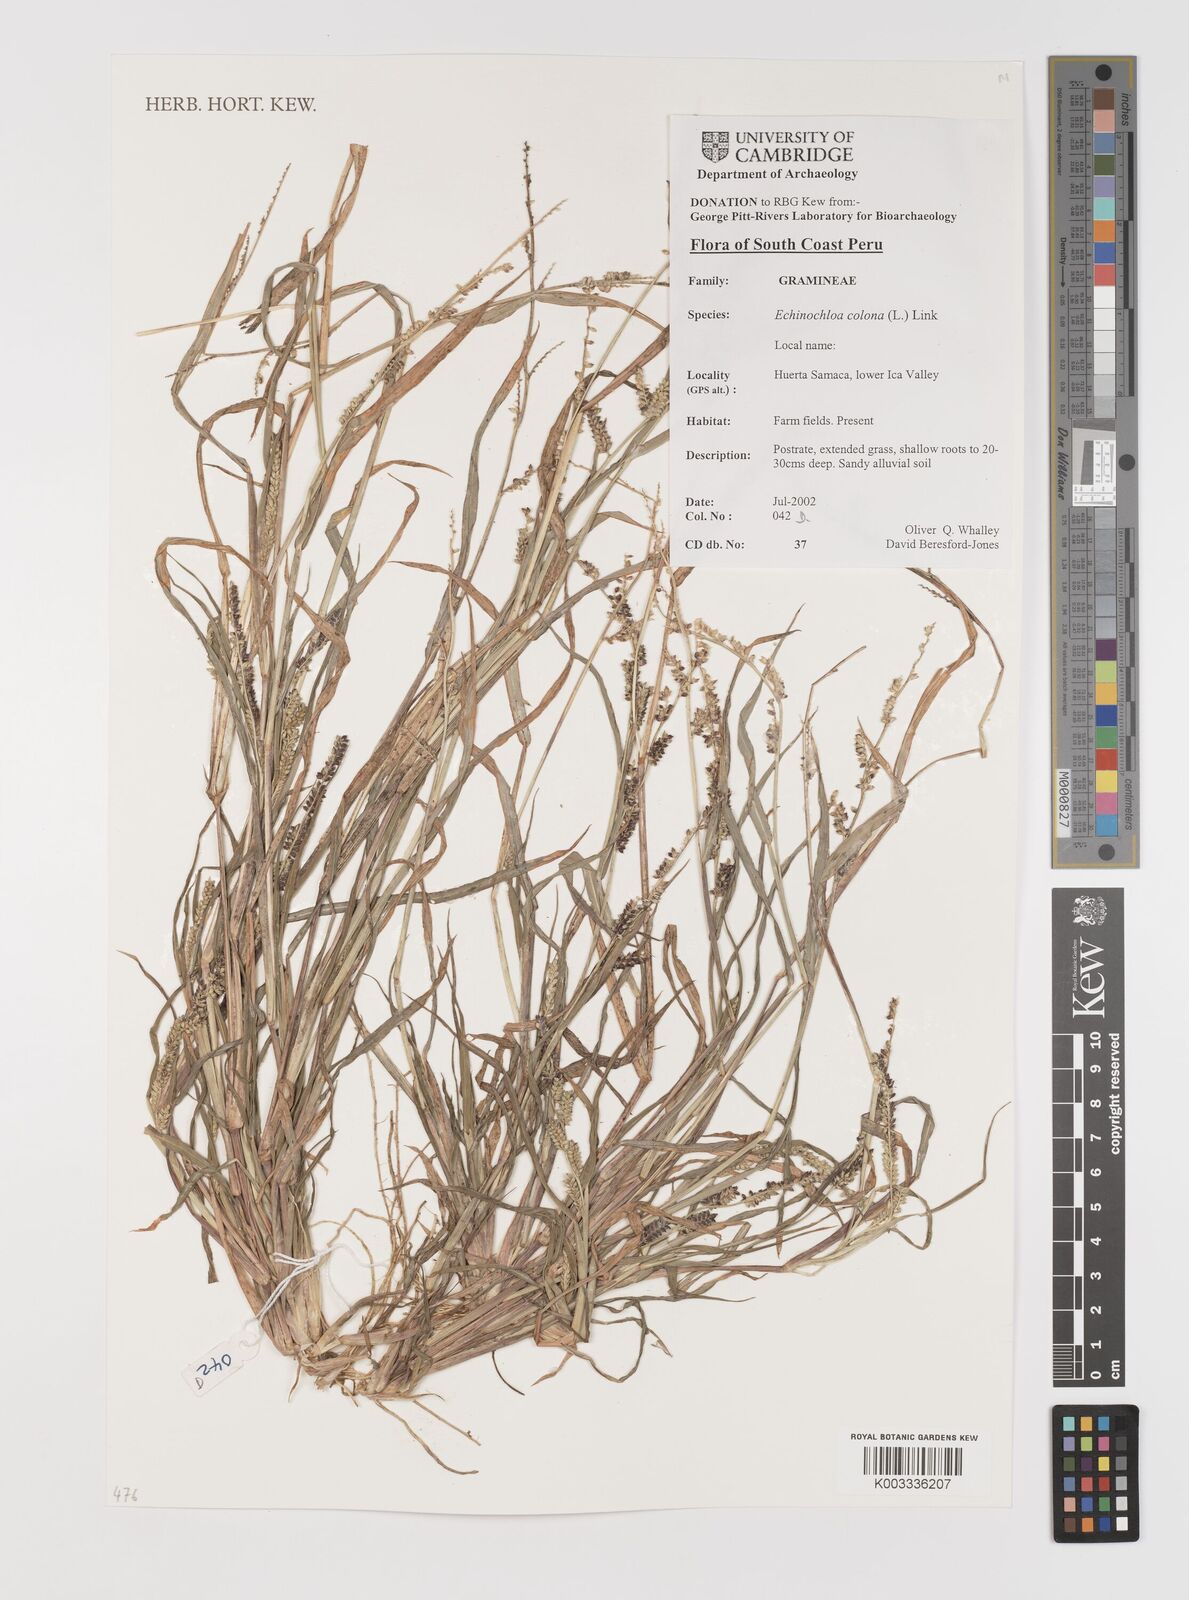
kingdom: Plantae
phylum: Tracheophyta
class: Liliopsida
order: Poales
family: Poaceae
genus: Echinochloa
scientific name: Echinochloa colonum
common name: Jungle rice
